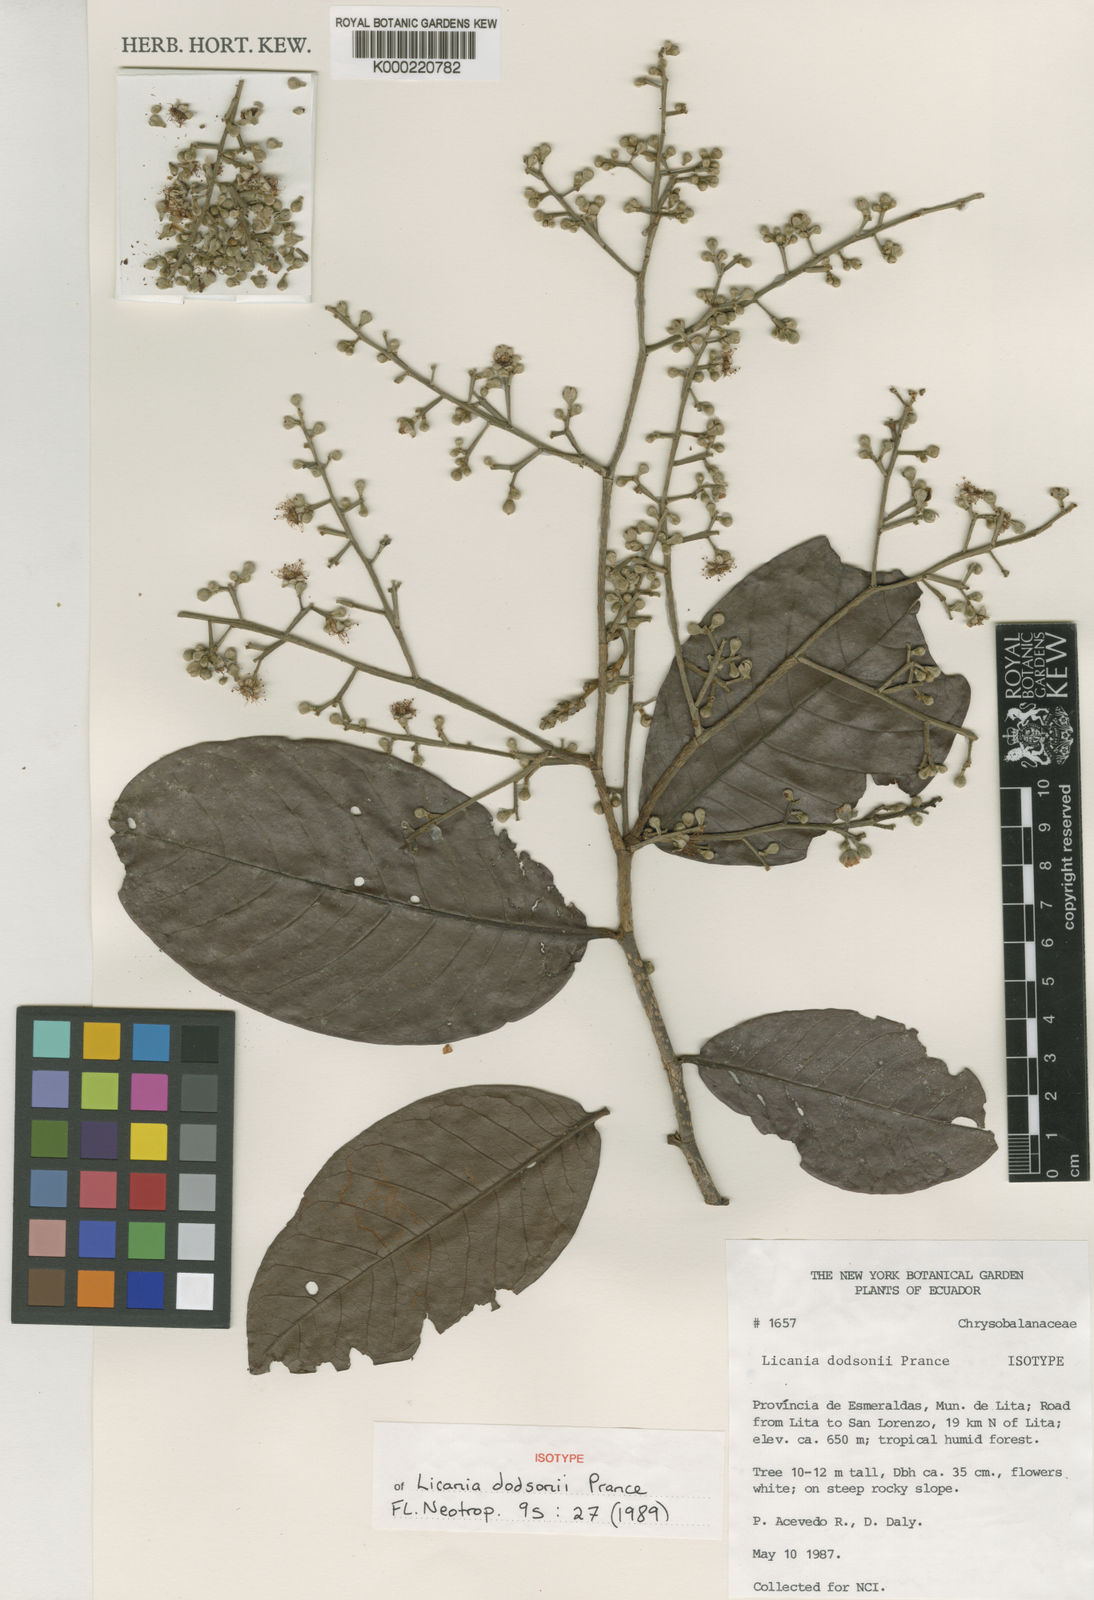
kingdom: Plantae
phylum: Tracheophyta
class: Magnoliopsida
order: Malpighiales
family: Chrysobalanaceae
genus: Moquilea
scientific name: Moquilea dodsonii
